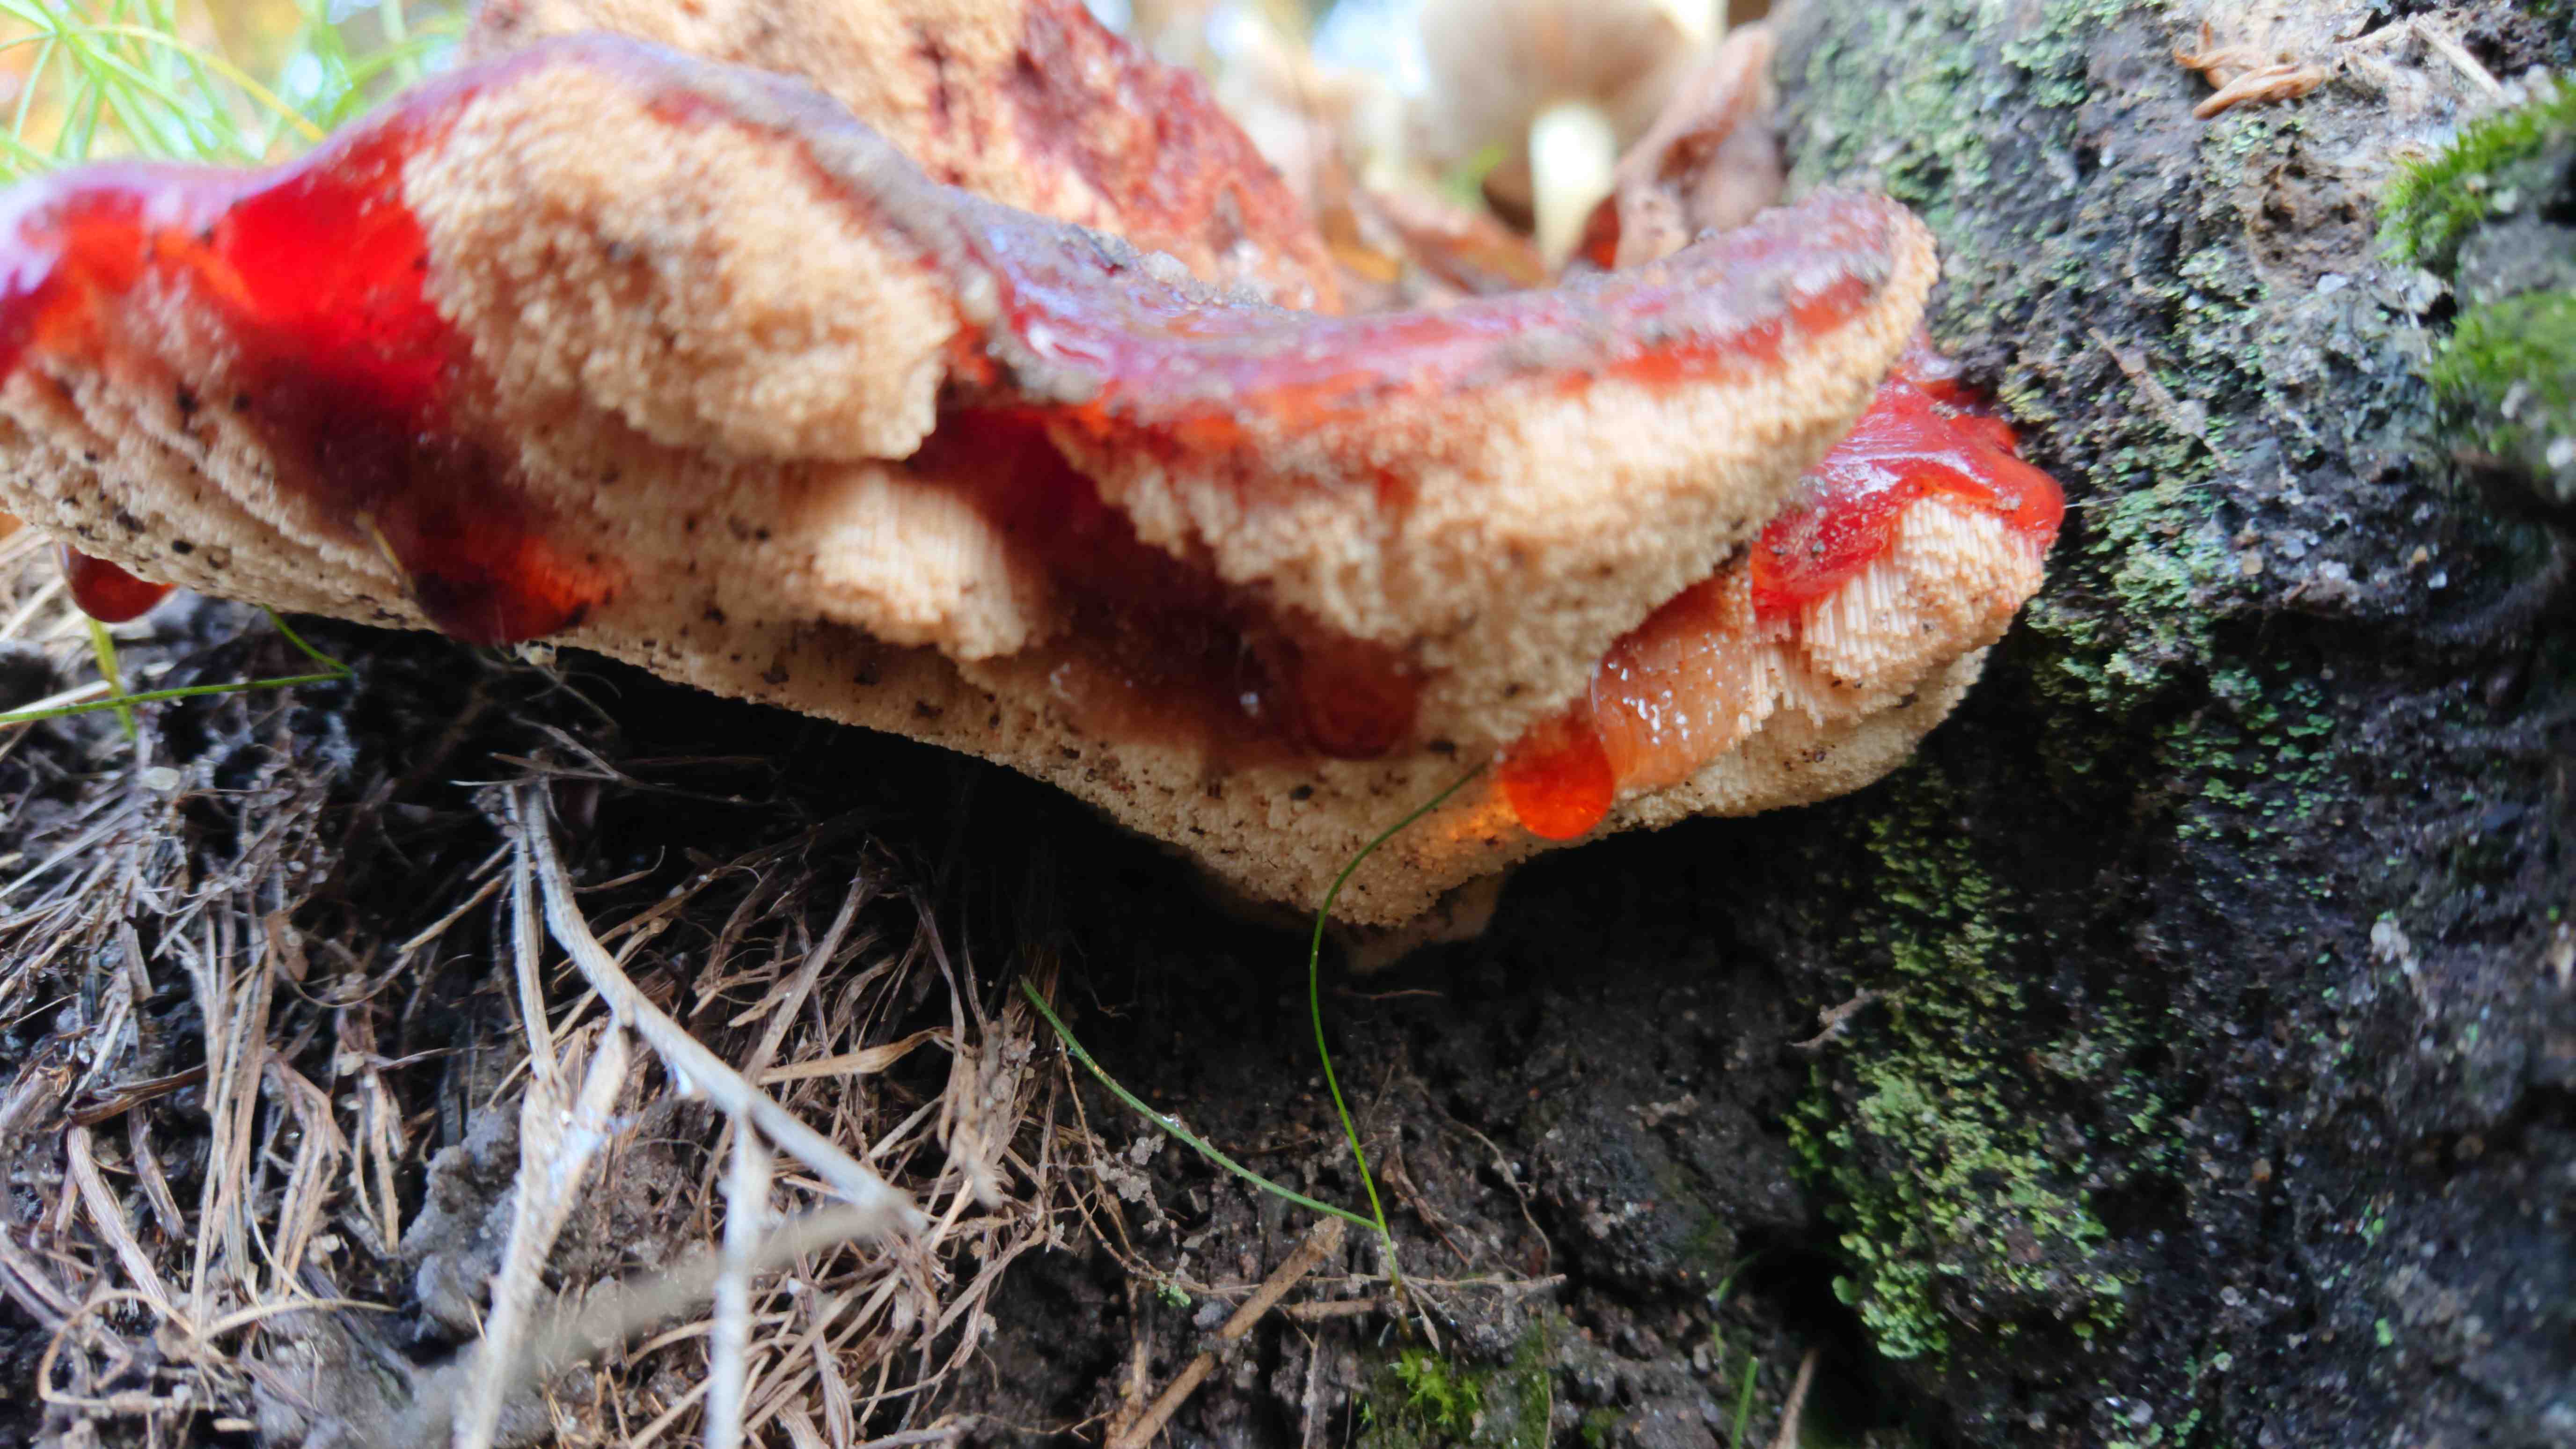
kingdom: Fungi
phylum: Basidiomycota
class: Agaricomycetes
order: Agaricales
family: Fistulinaceae
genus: Fistulina
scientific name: Fistulina hepatica
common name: oksetunge
